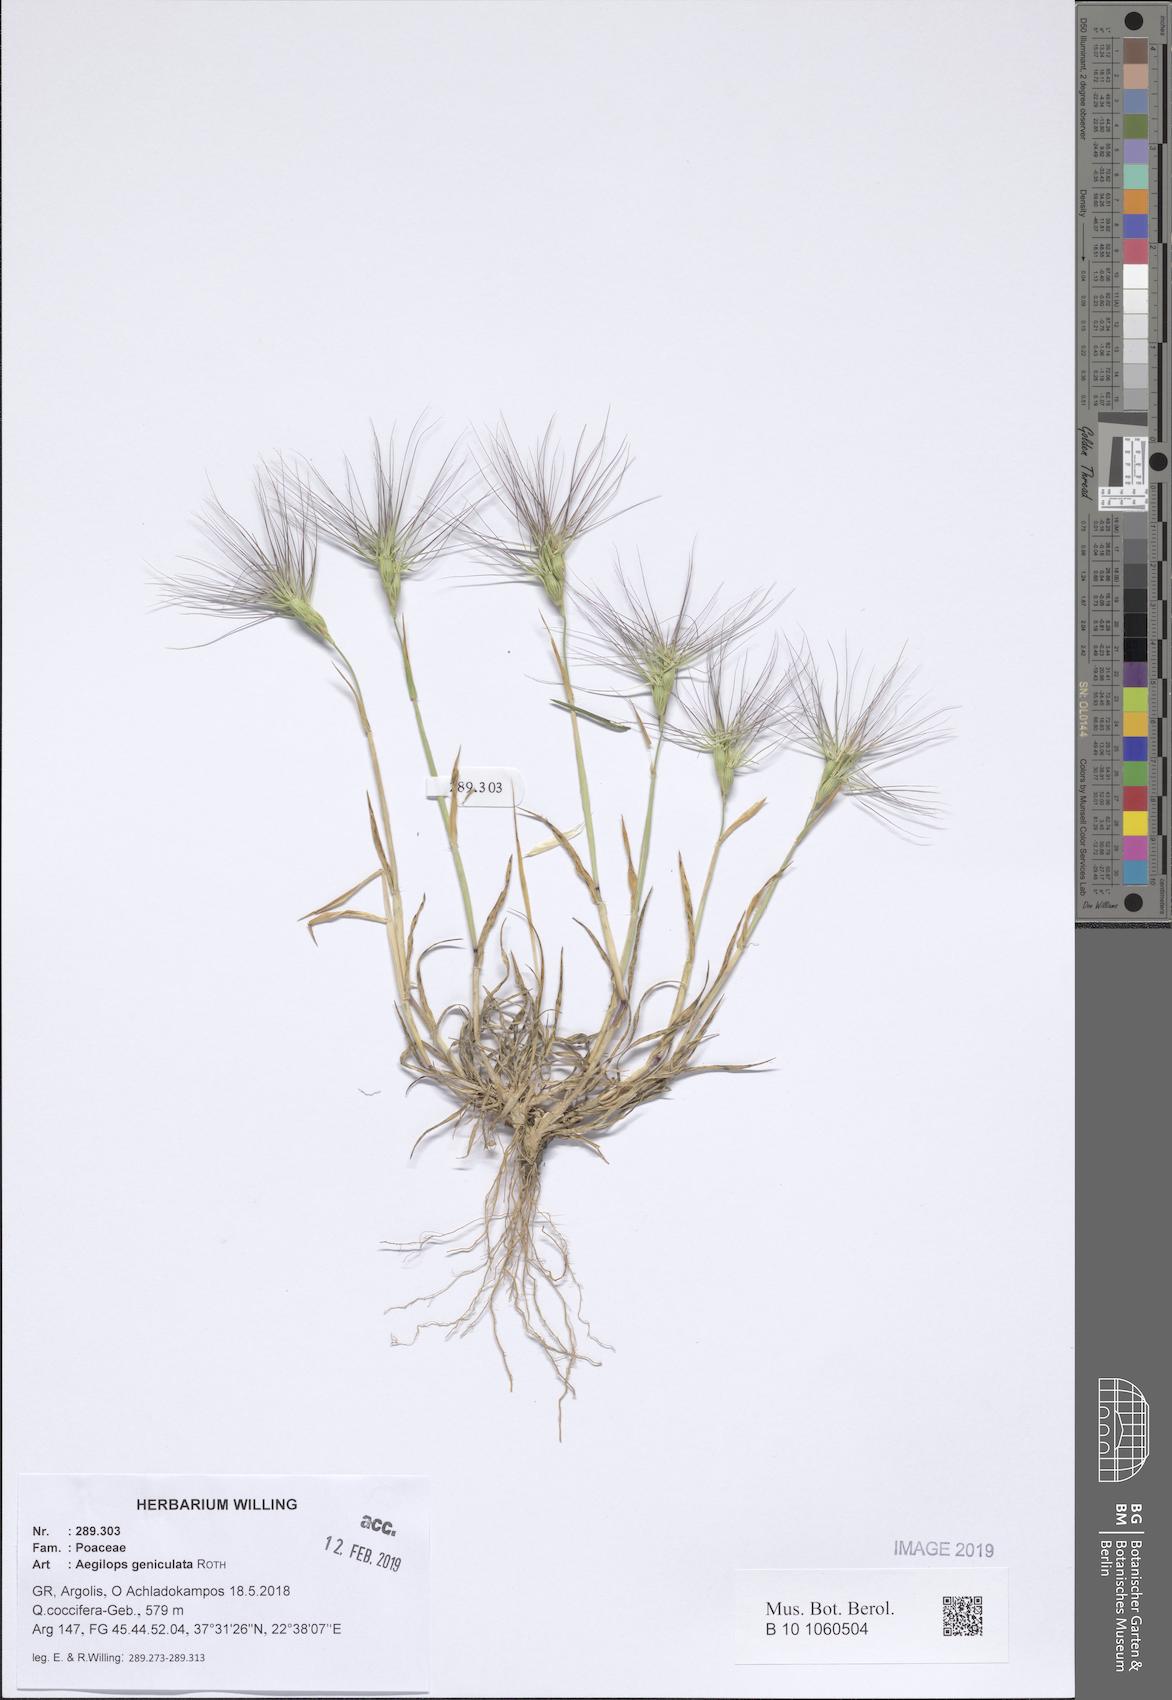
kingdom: Plantae
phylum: Tracheophyta
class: Liliopsida
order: Poales
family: Poaceae
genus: Aegilops
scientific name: Aegilops geniculata
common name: Ovate goat grass
